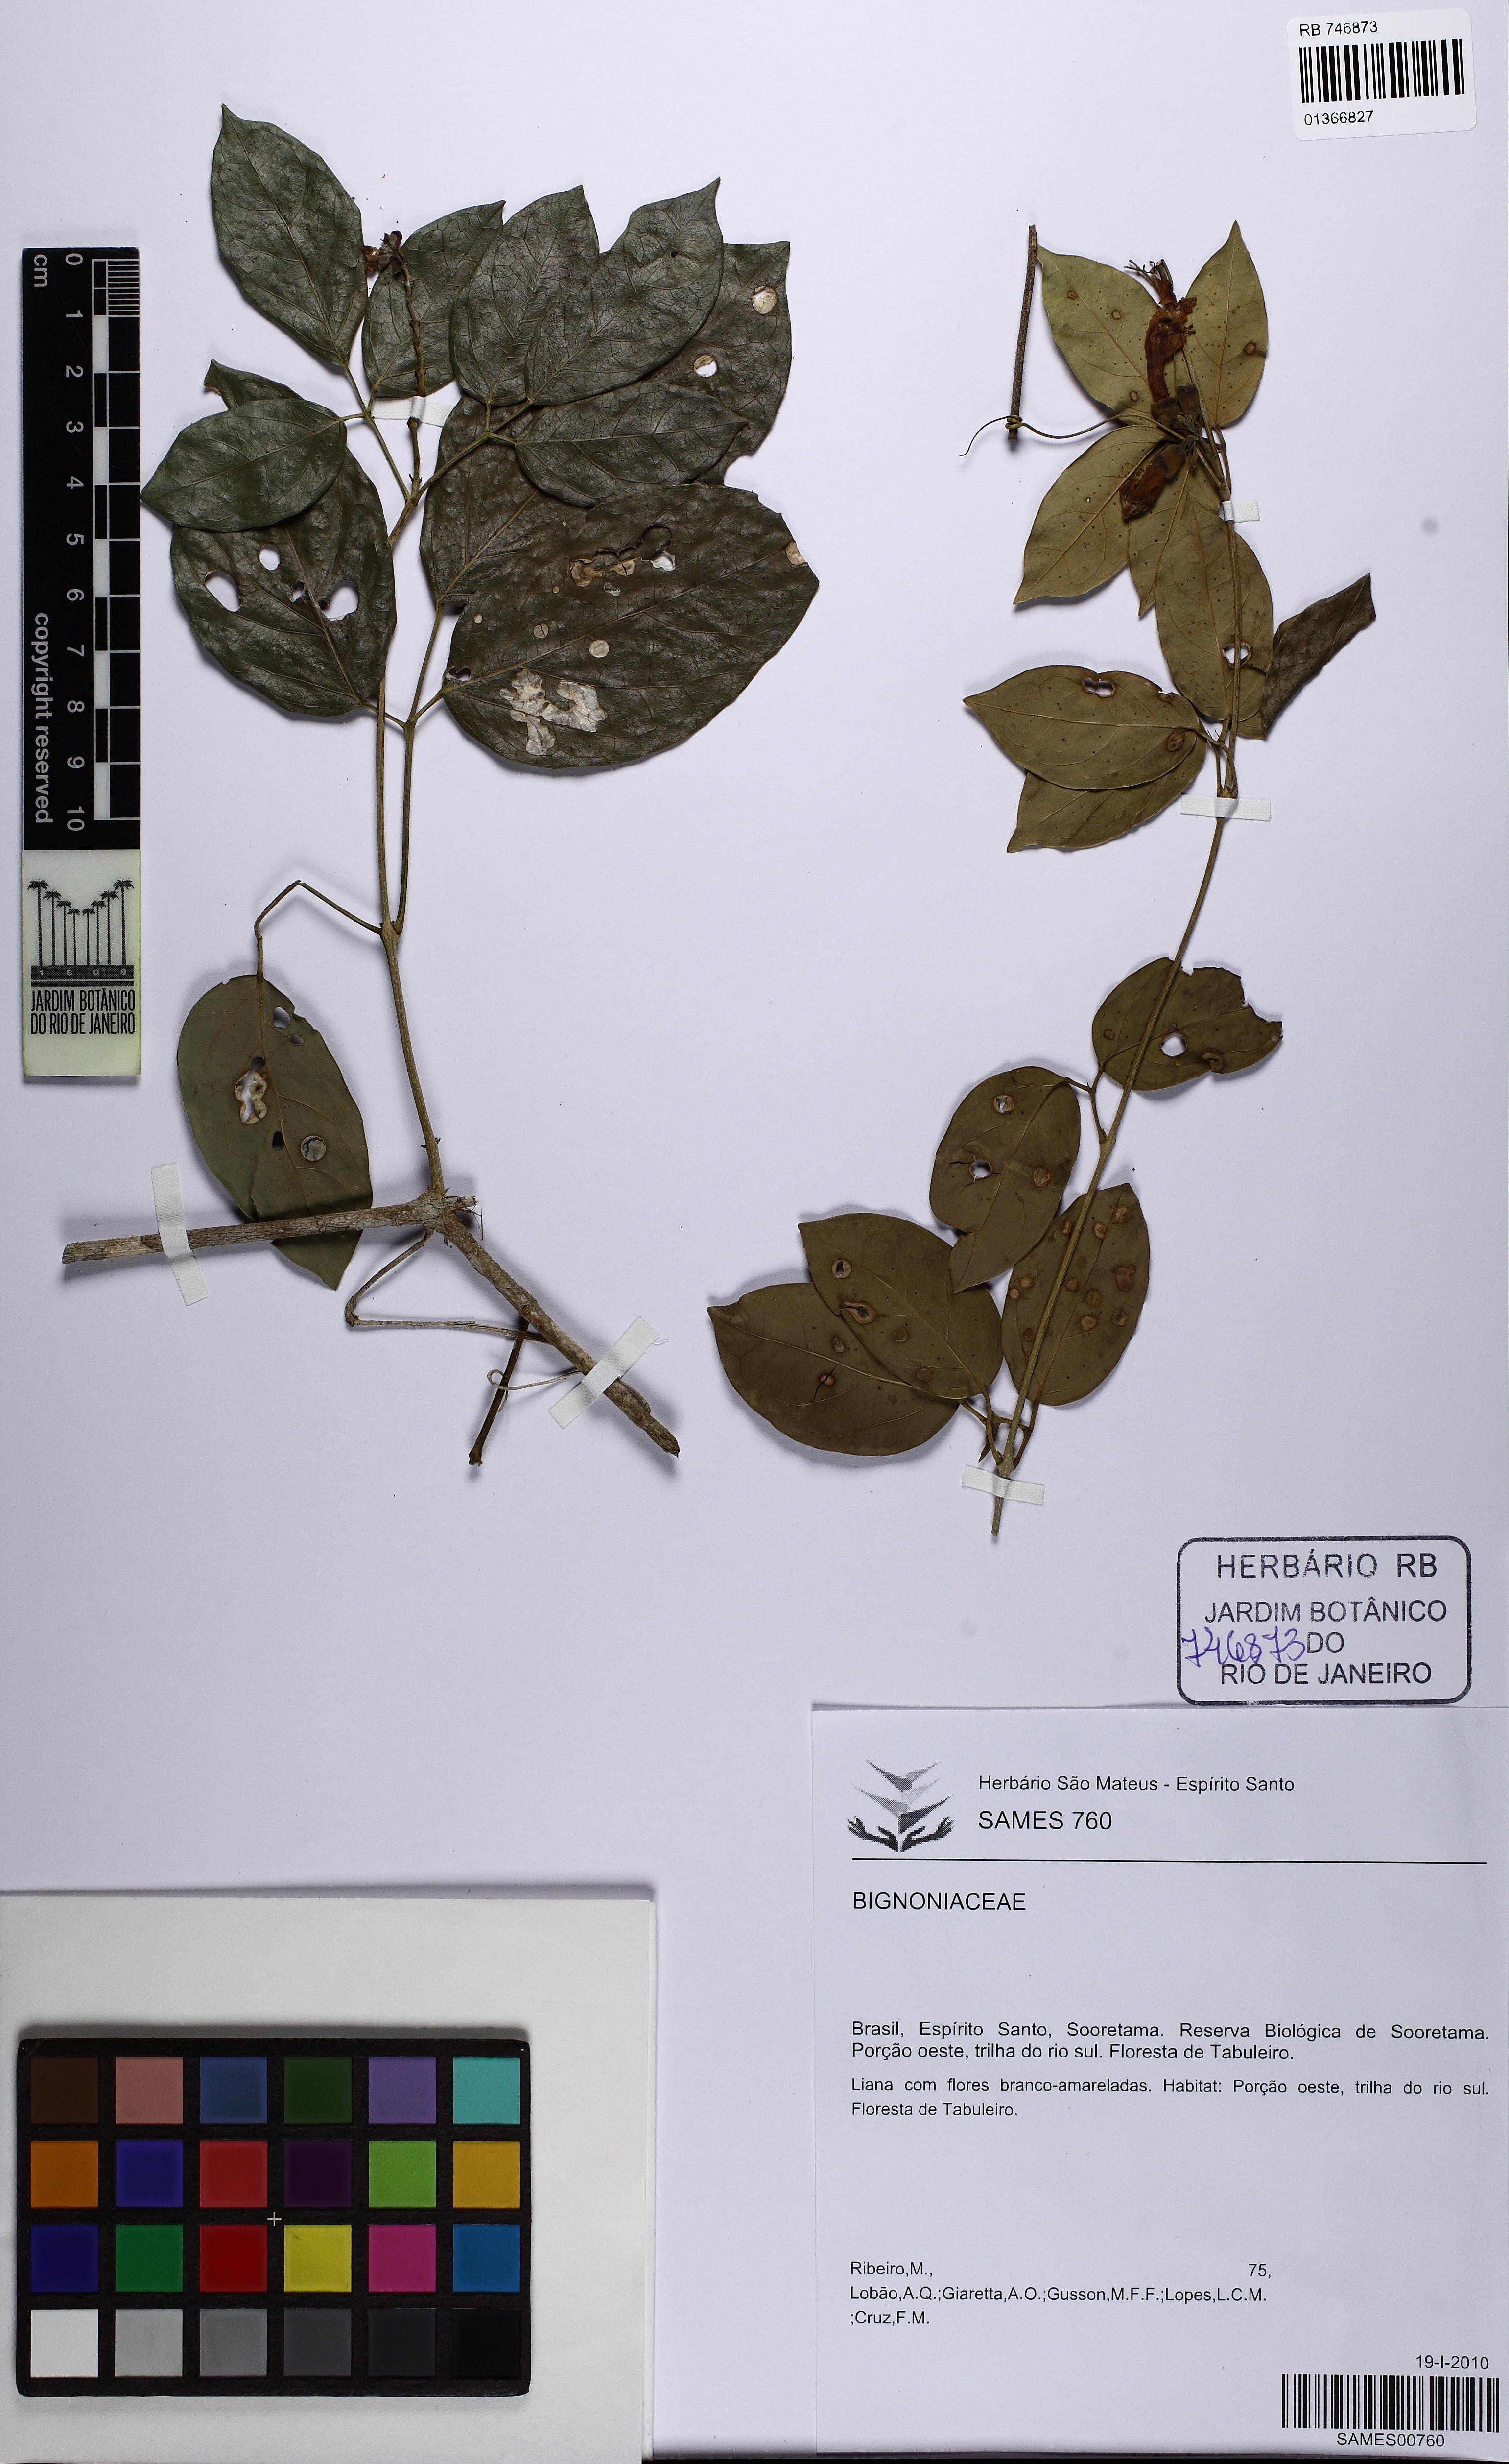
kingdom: Plantae
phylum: Tracheophyta
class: Magnoliopsida
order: Lamiales
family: Bignoniaceae
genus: Adenocalymma
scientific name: Adenocalymma
